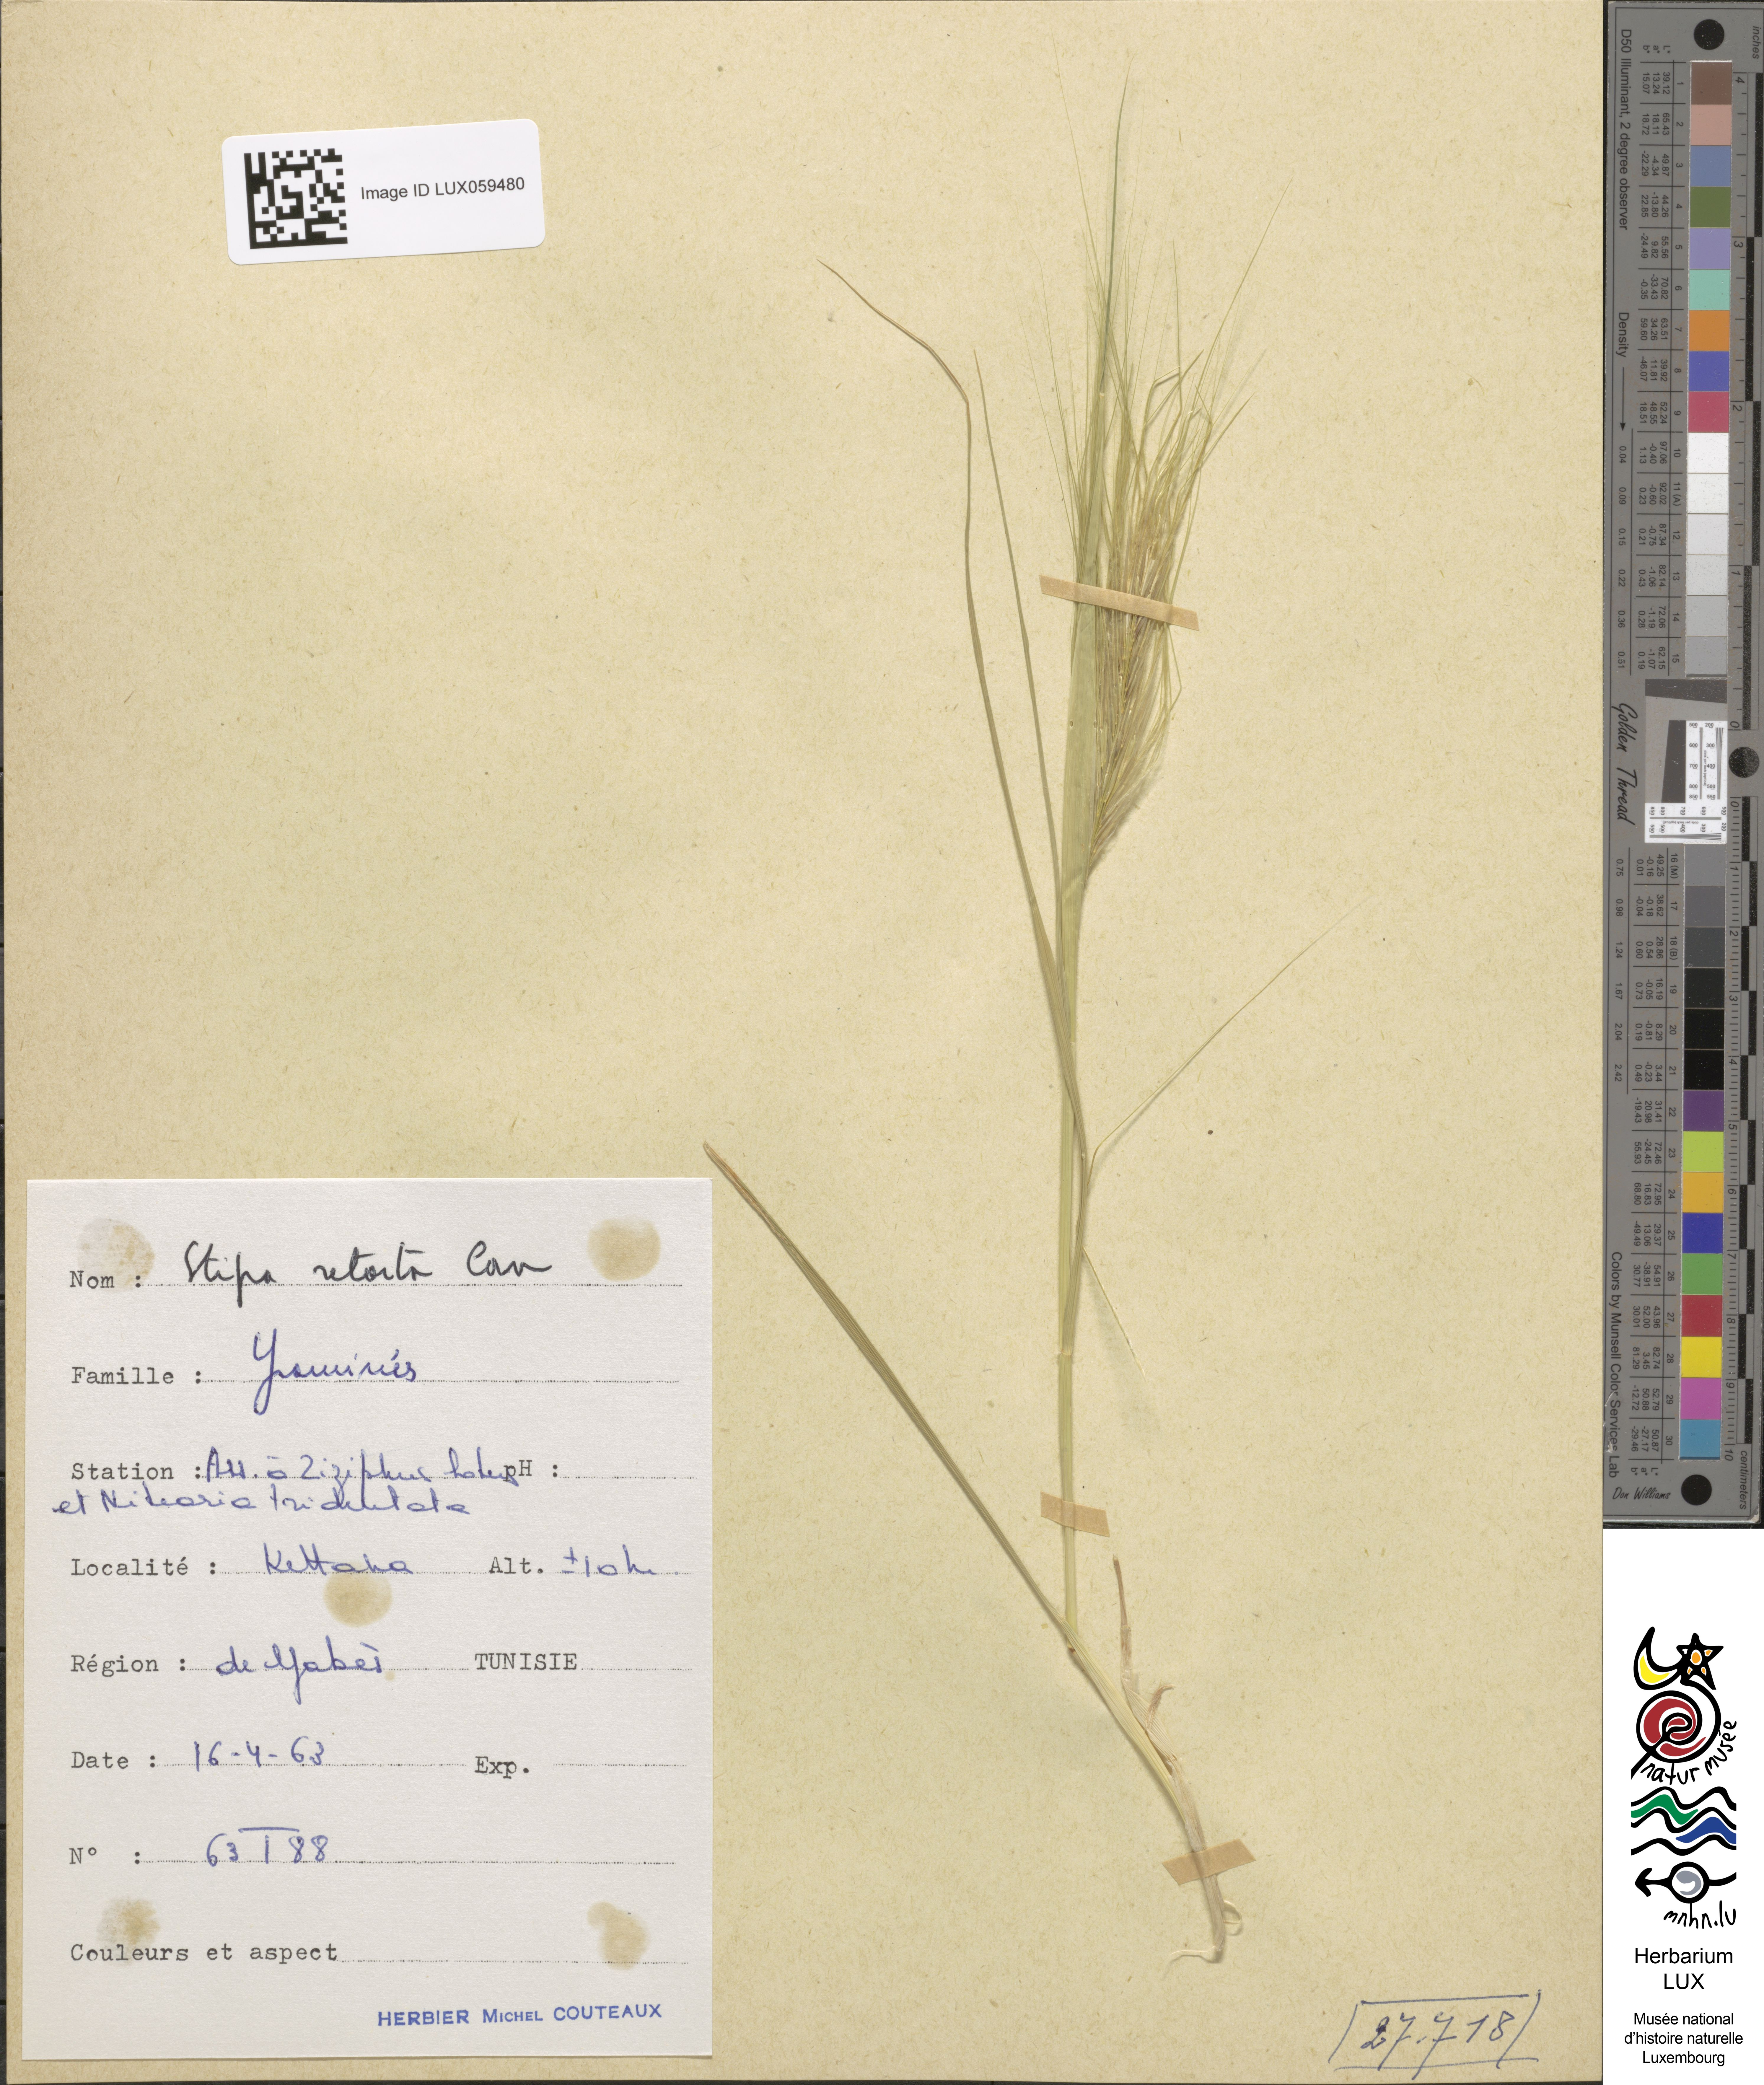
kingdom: Plantae
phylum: Tracheophyta
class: Liliopsida
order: Poales
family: Poaceae
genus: Stipellula
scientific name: Stipellula capensis
